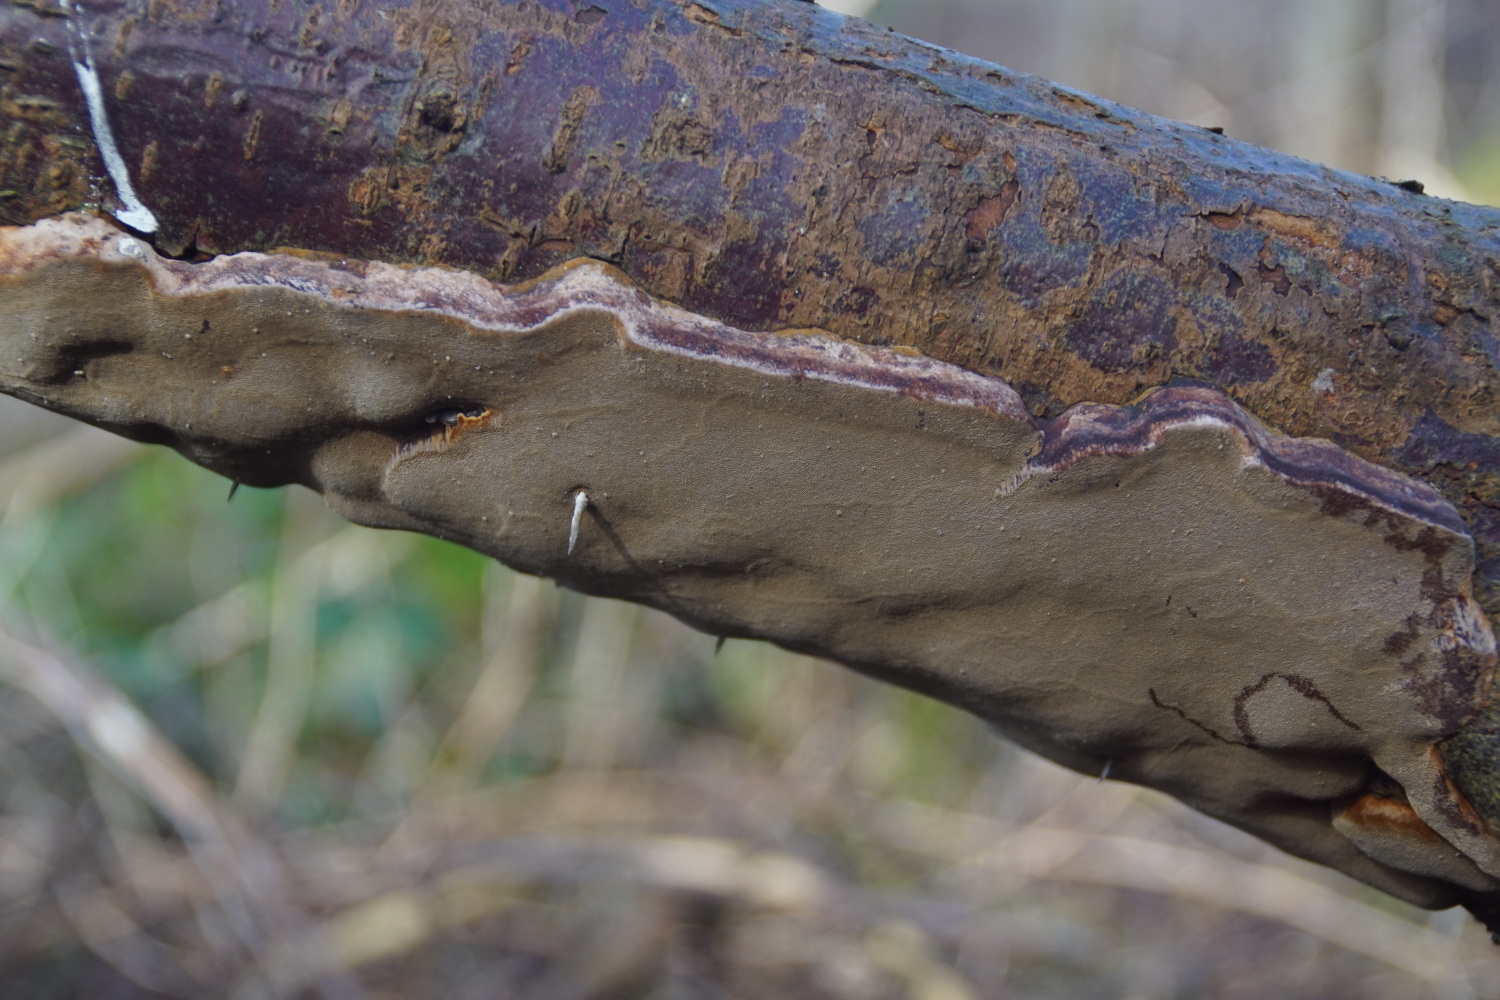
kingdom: Fungi
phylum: Basidiomycota
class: Agaricomycetes
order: Hymenochaetales
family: Hymenochaetaceae
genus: Phellinus
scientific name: Phellinus pomaceus
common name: blomme-ildporesvamp
